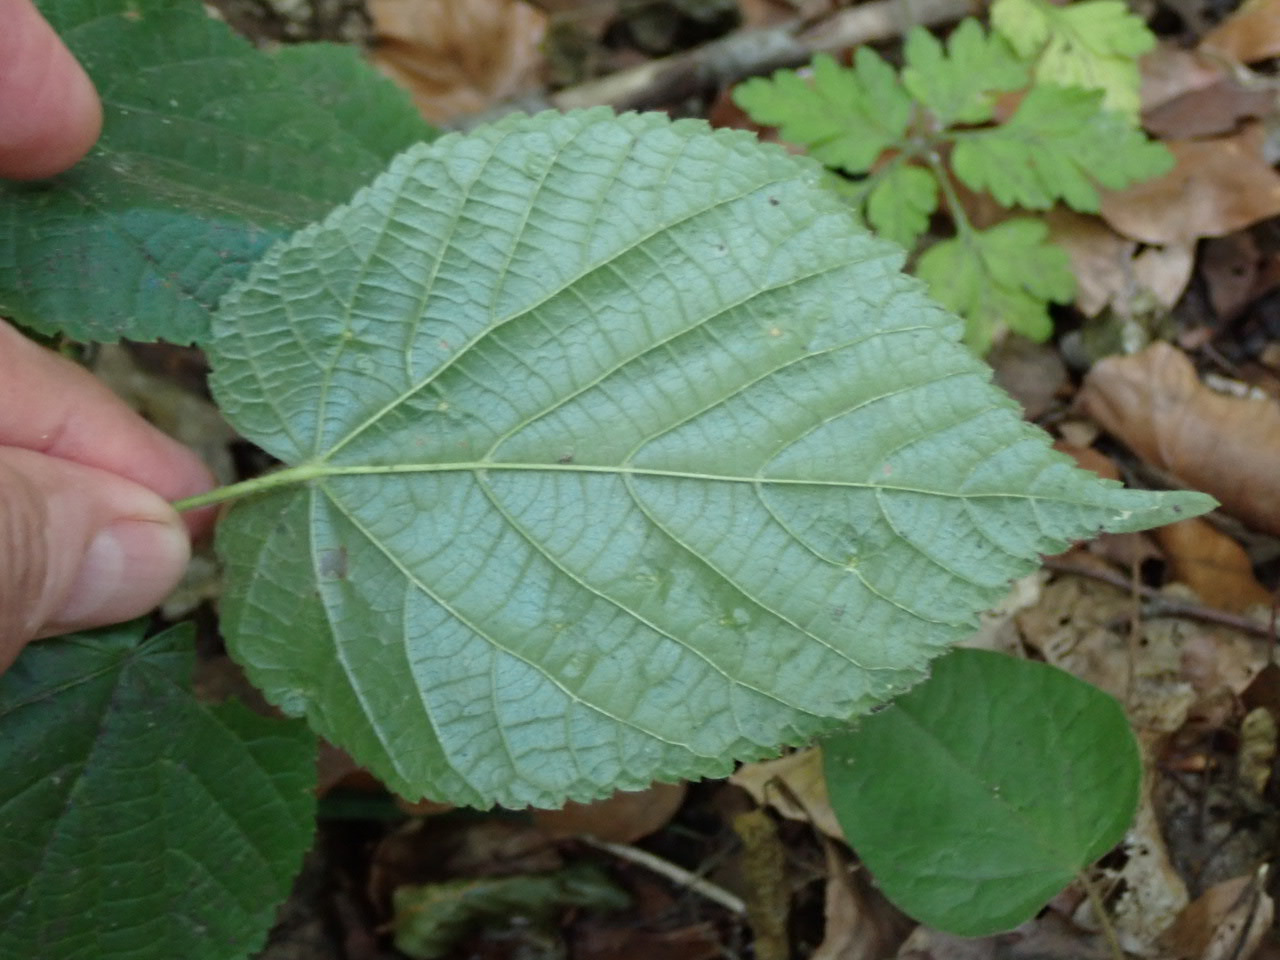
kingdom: Plantae
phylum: Tracheophyta
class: Magnoliopsida
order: Malvales
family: Malvaceae
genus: Tilia
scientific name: Tilia platyphyllos
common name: Storbladet lind
